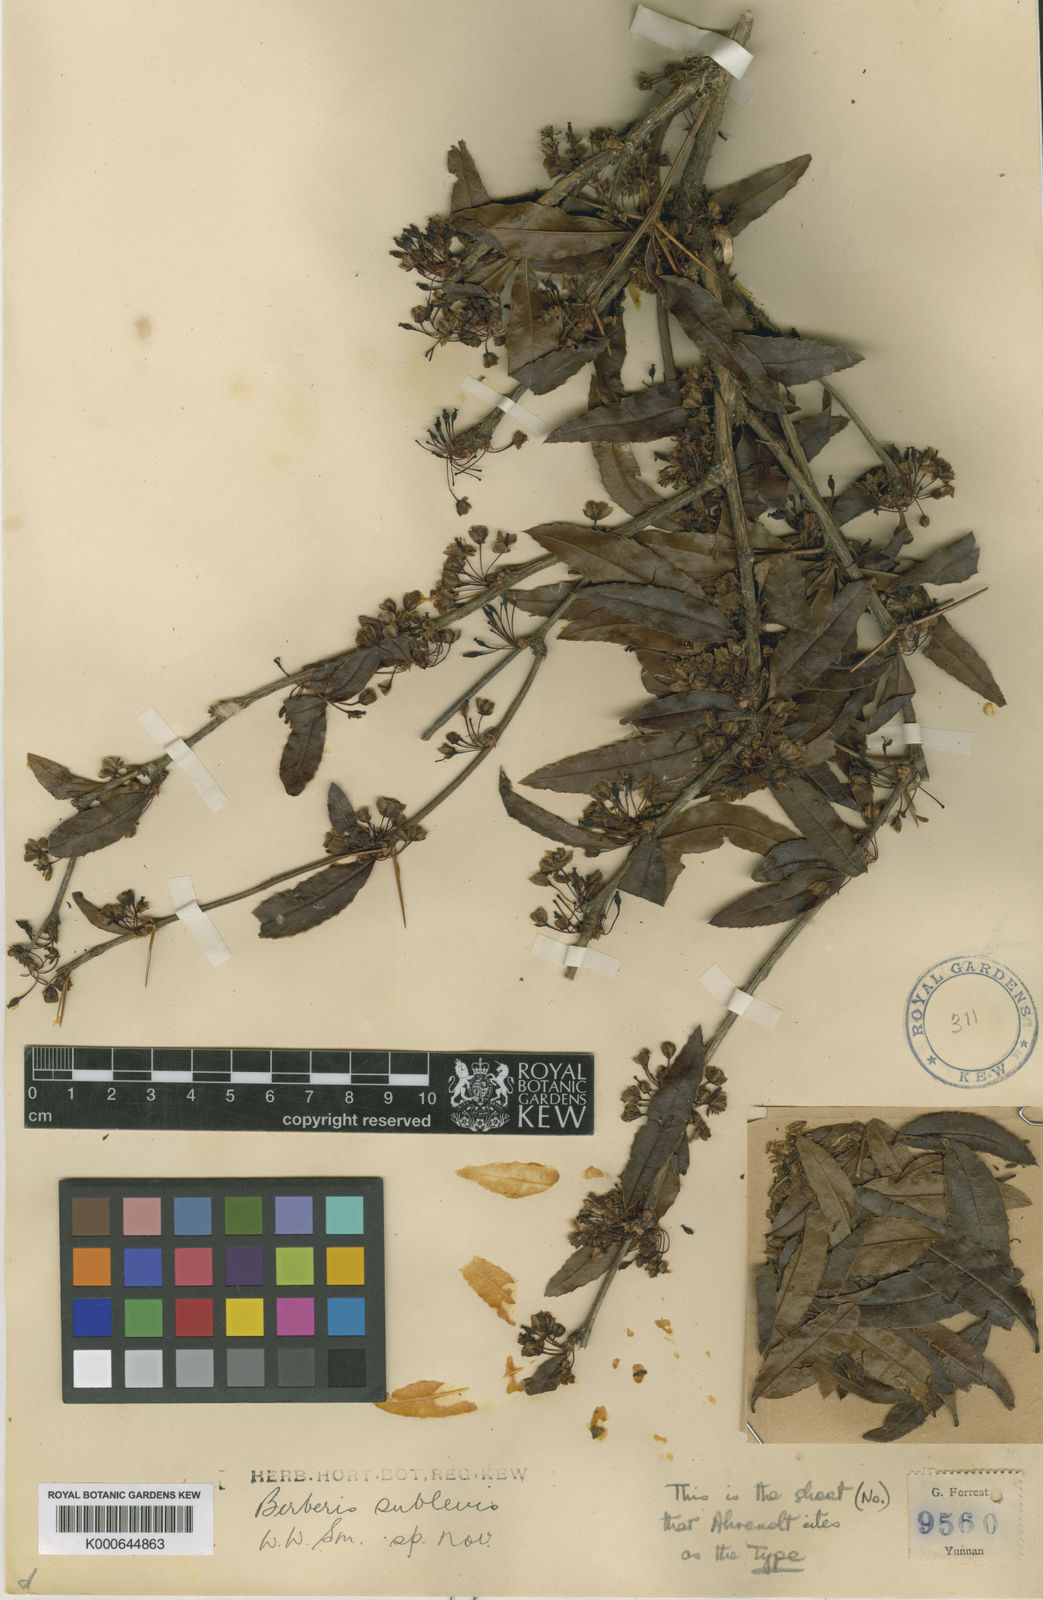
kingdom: Plantae
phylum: Tracheophyta
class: Magnoliopsida
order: Ranunculales
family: Berberidaceae
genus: Berberis
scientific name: Berberis sublevis
